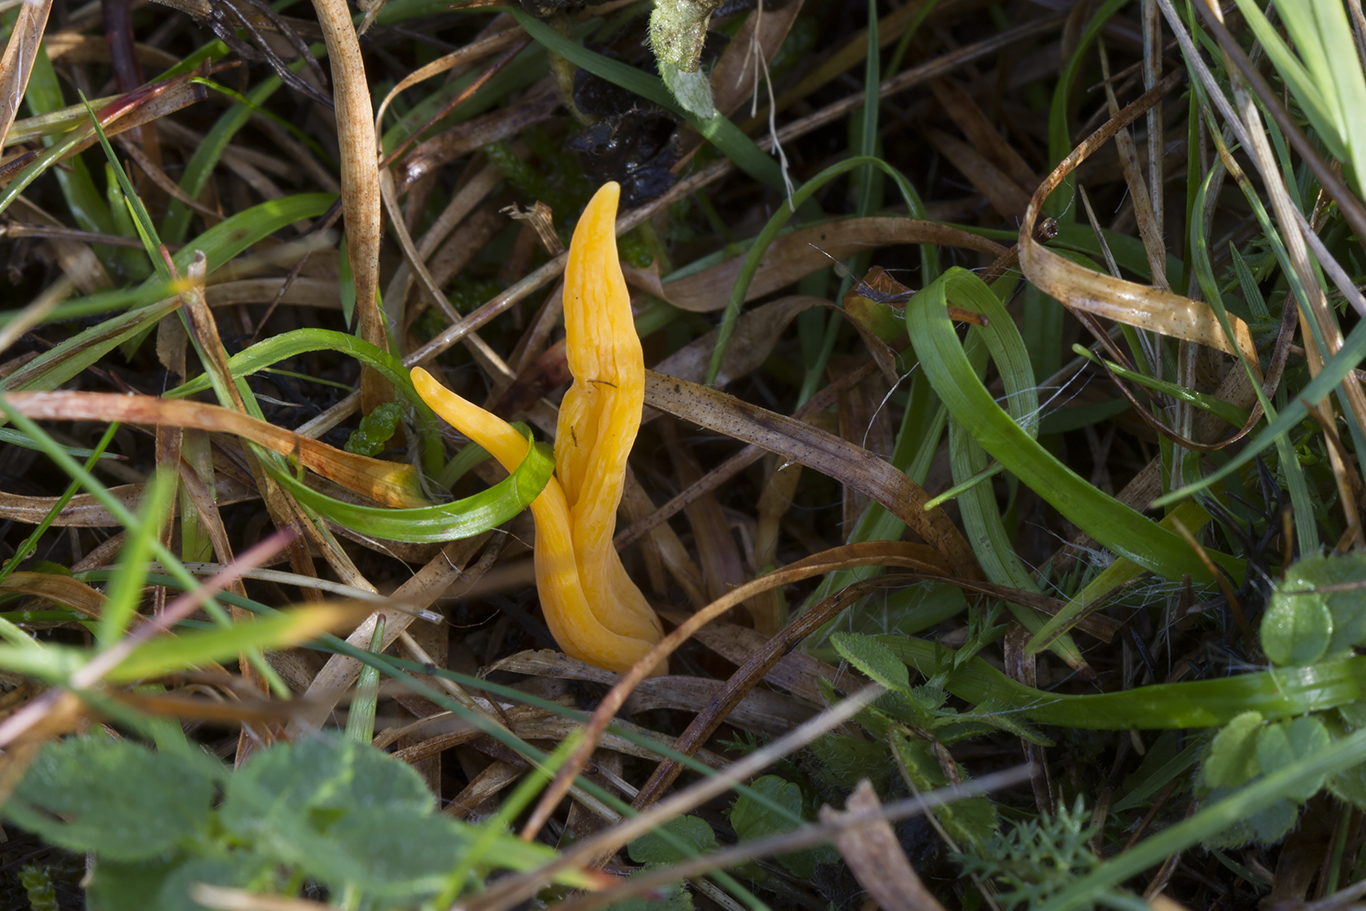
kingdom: Fungi
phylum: Basidiomycota
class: Agaricomycetes
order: Agaricales
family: Clavariaceae
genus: Clavulinopsis
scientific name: Clavulinopsis luteoalba
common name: abrikos-køllesvamp
